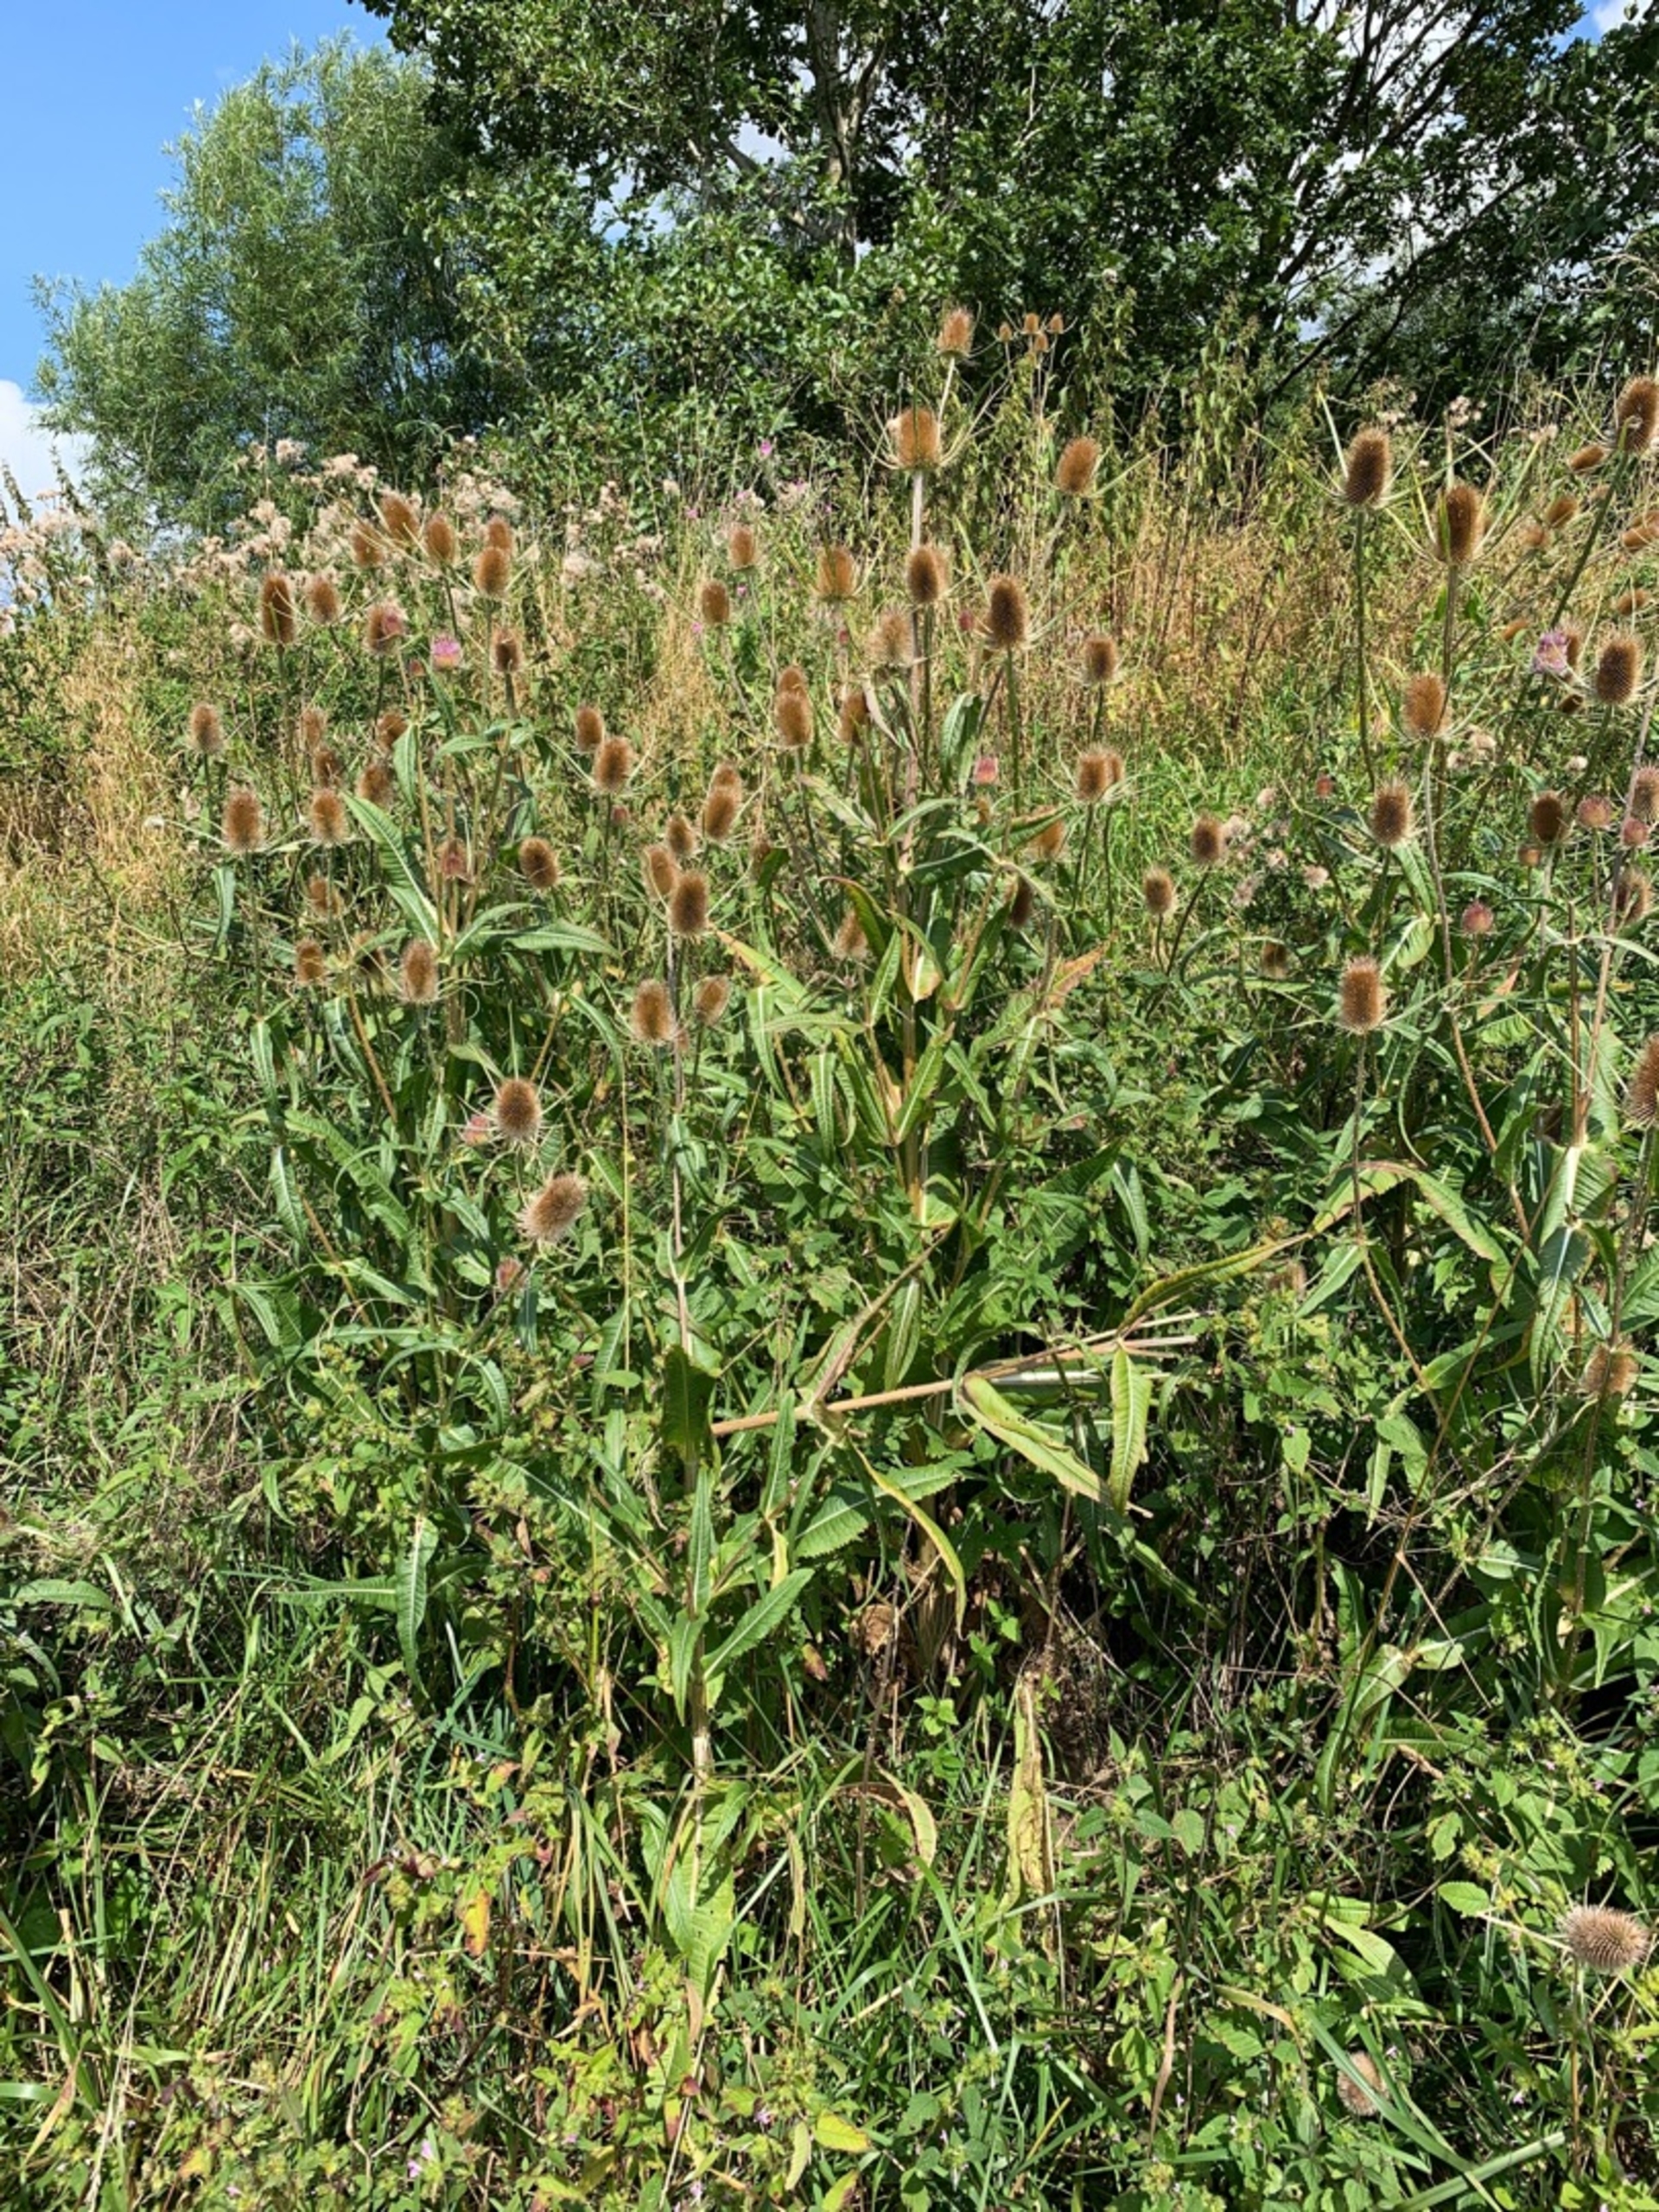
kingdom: Plantae
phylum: Tracheophyta
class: Magnoliopsida
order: Dipsacales
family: Caprifoliaceae
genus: Dipsacus
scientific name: Dipsacus fullonum
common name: Gærde-kartebolle
